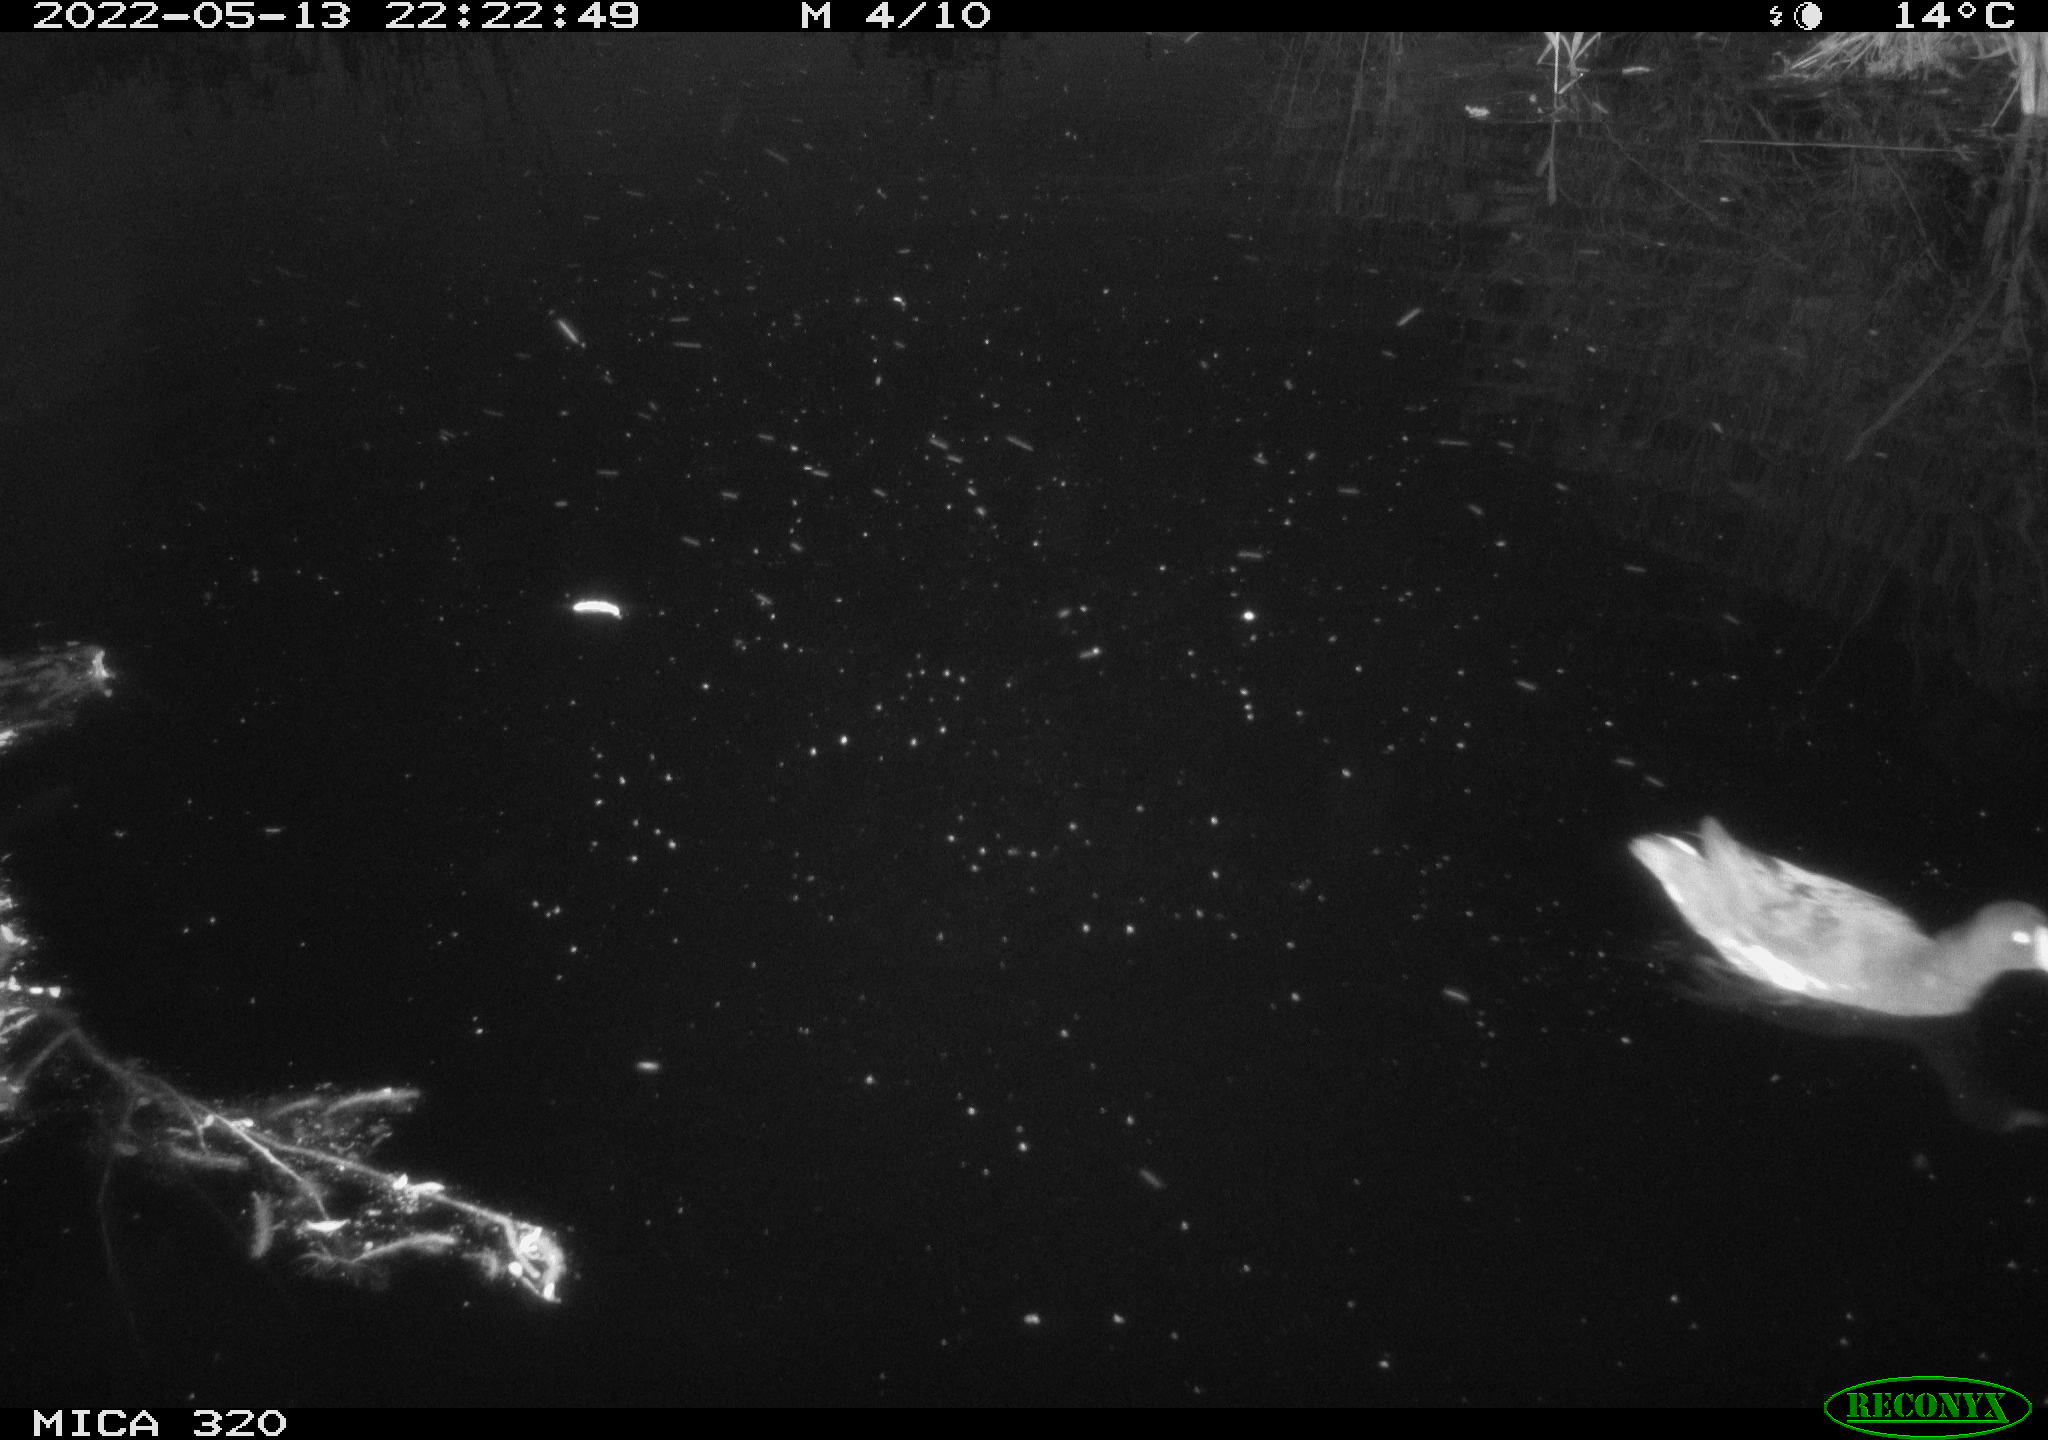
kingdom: Animalia
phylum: Chordata
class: Aves
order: Gruiformes
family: Rallidae
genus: Gallinula
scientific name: Gallinula chloropus
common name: Common moorhen
